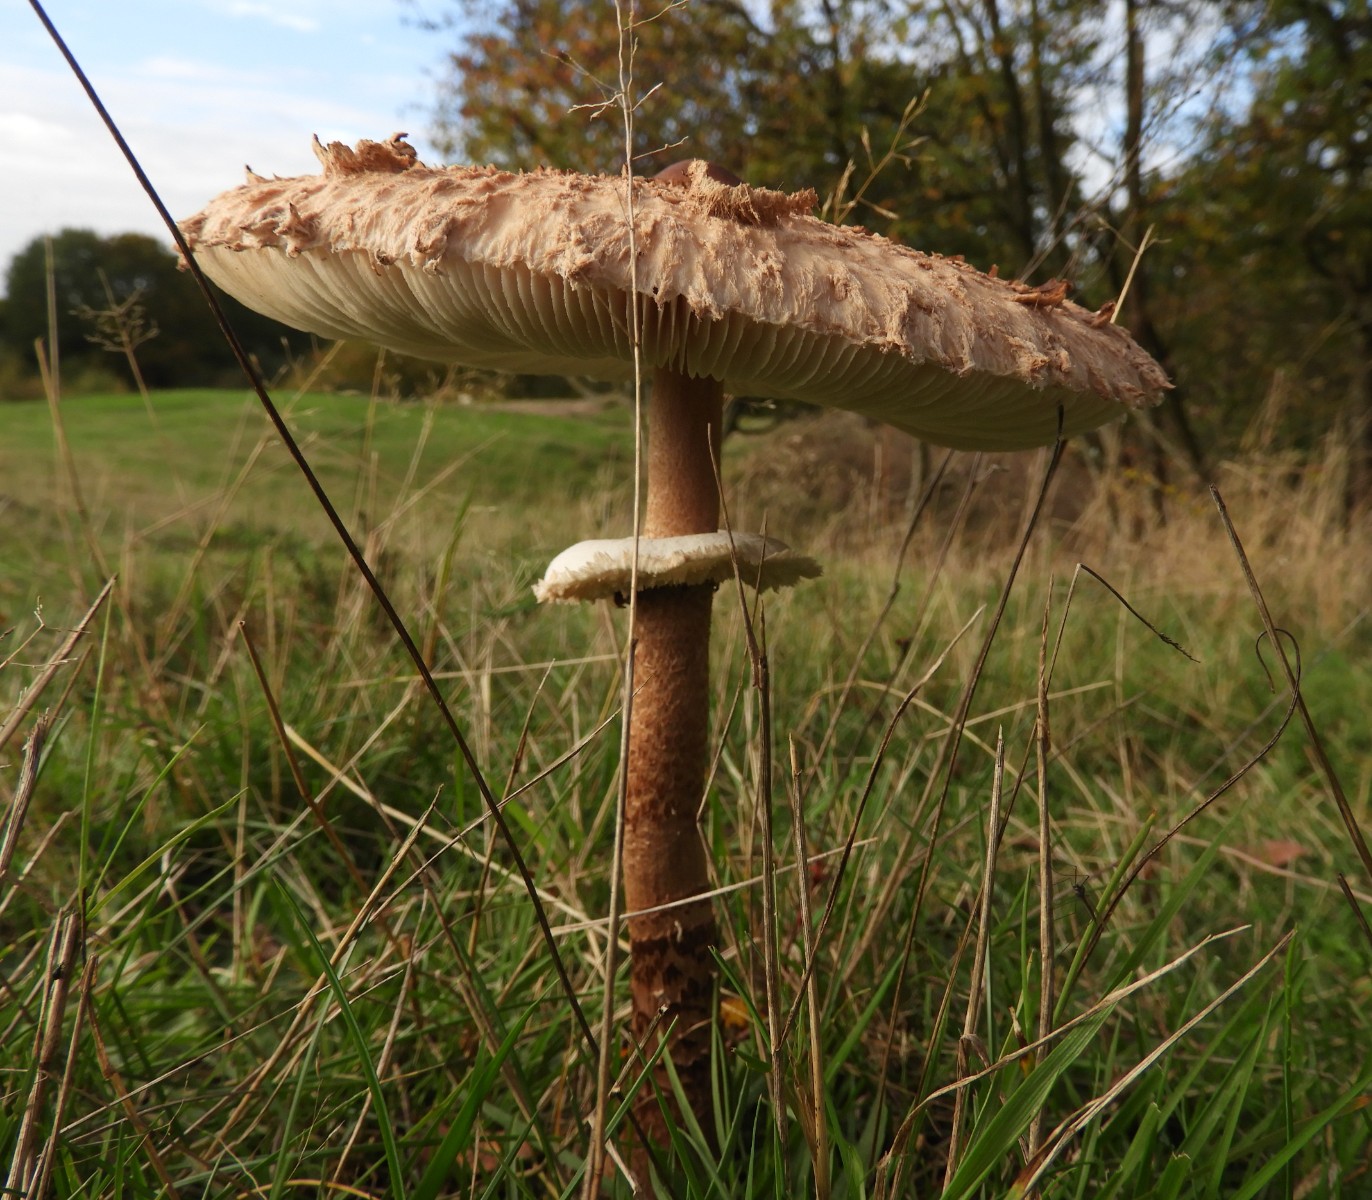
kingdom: Fungi
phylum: Basidiomycota
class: Agaricomycetes
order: Agaricales
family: Agaricaceae
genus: Macrolepiota
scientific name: Macrolepiota procera
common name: stor kæmpeparasolhat
